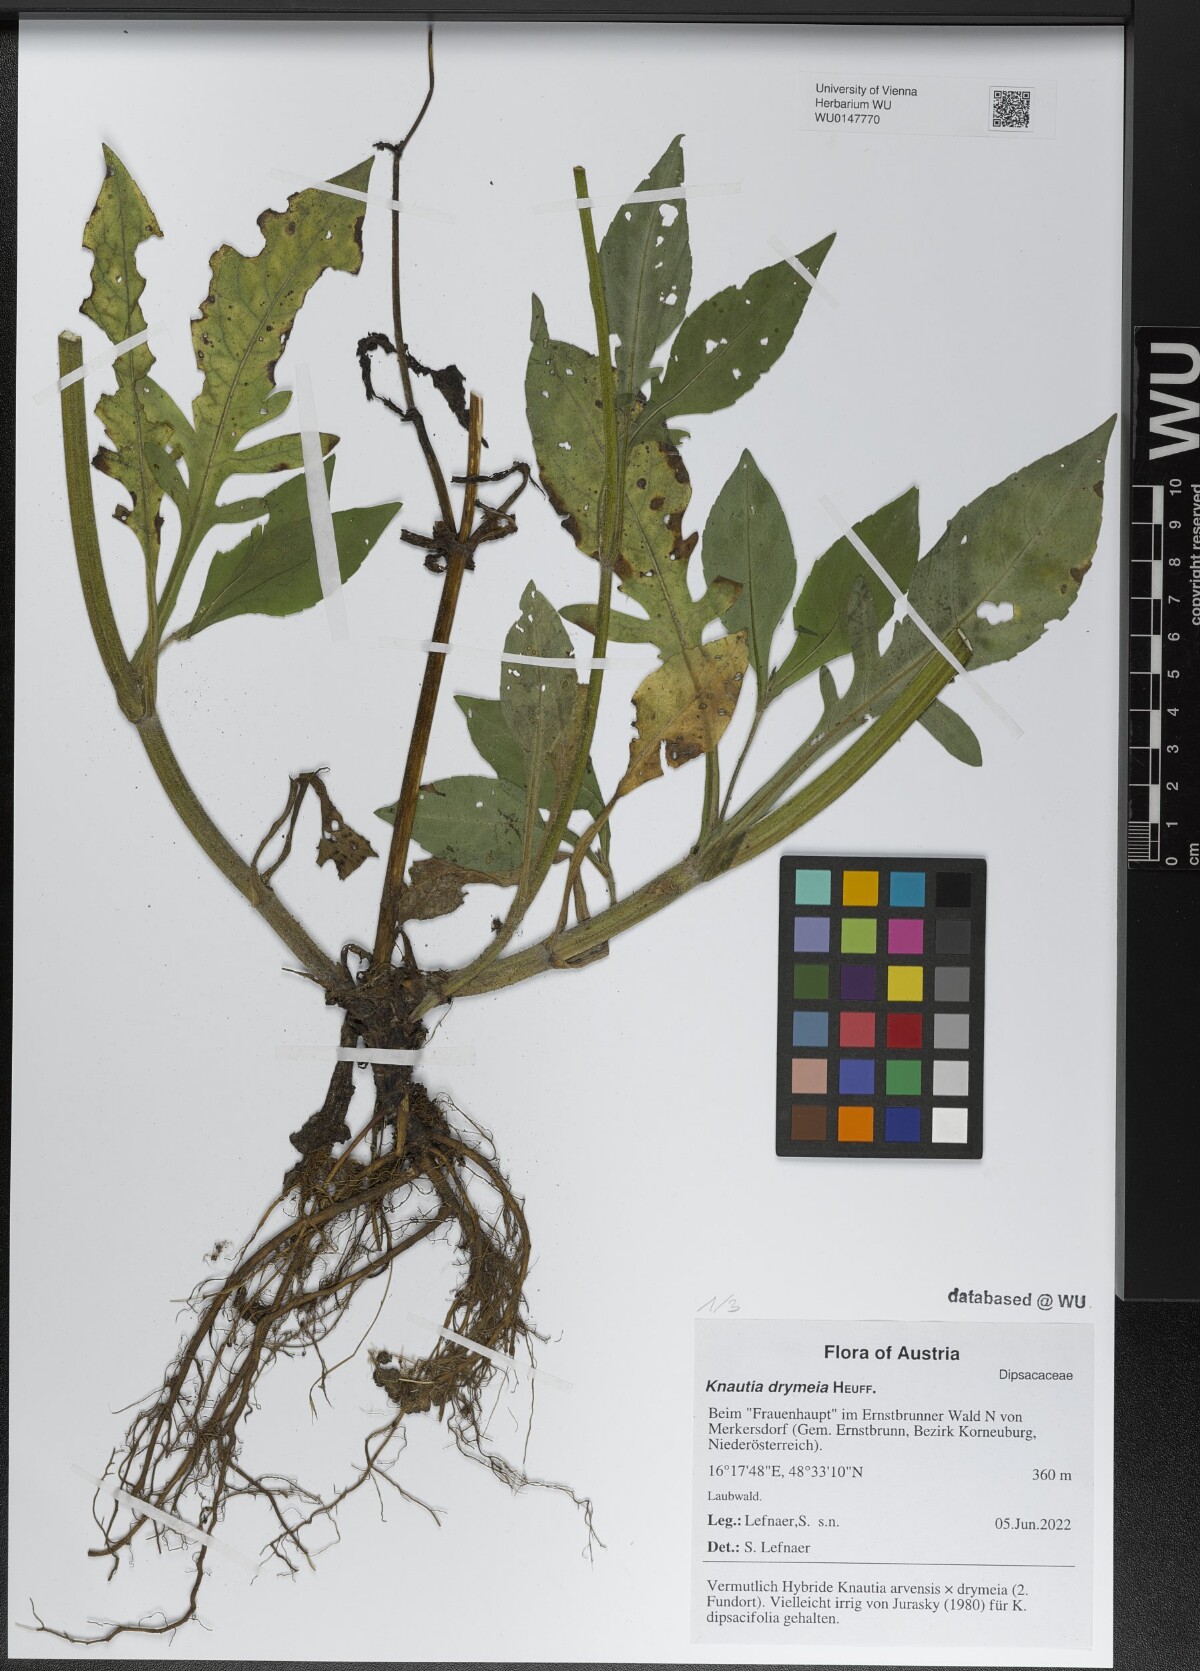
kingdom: Plantae
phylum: Tracheophyta
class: Magnoliopsida
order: Dipsacales
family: Caprifoliaceae
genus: Knautia
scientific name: Knautia drymeia
